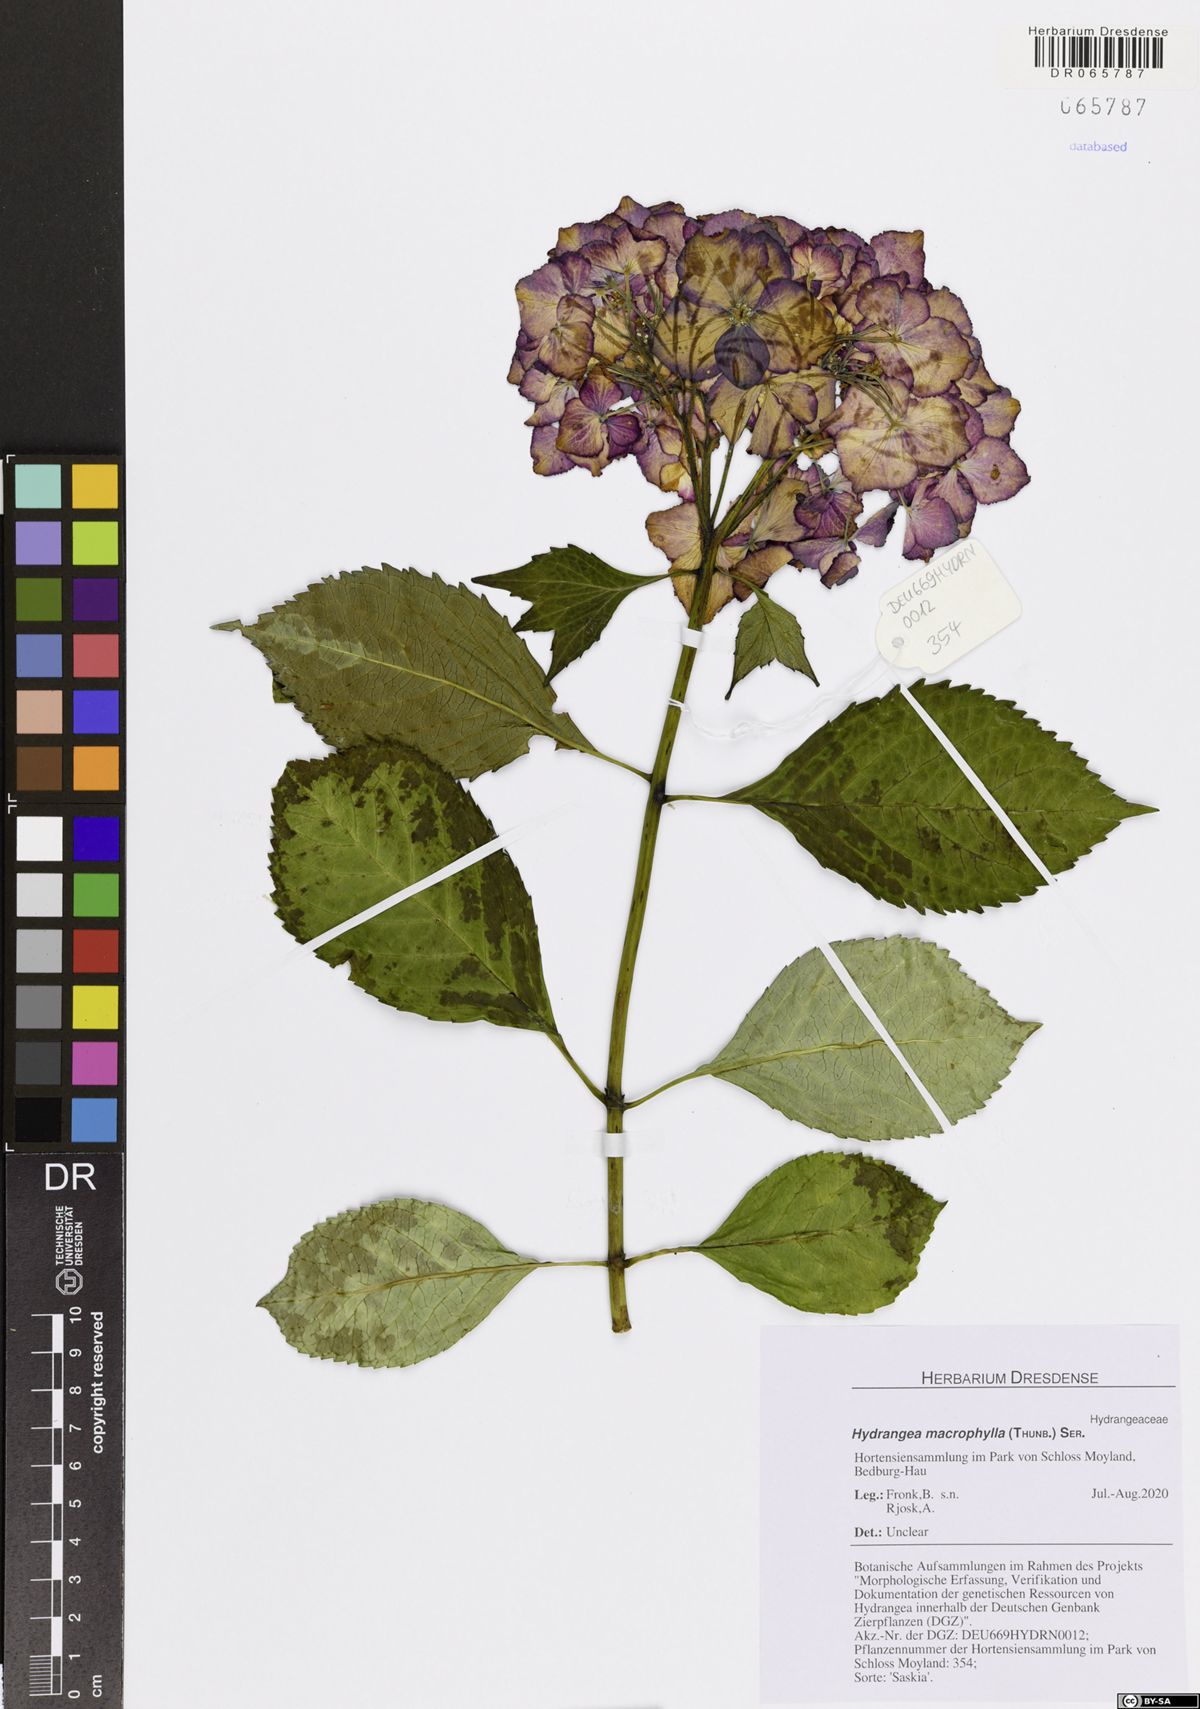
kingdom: Plantae
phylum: Tracheophyta
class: Magnoliopsida
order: Cornales
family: Hydrangeaceae
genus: Hydrangea
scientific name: Hydrangea macrophylla
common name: Hydrangea
